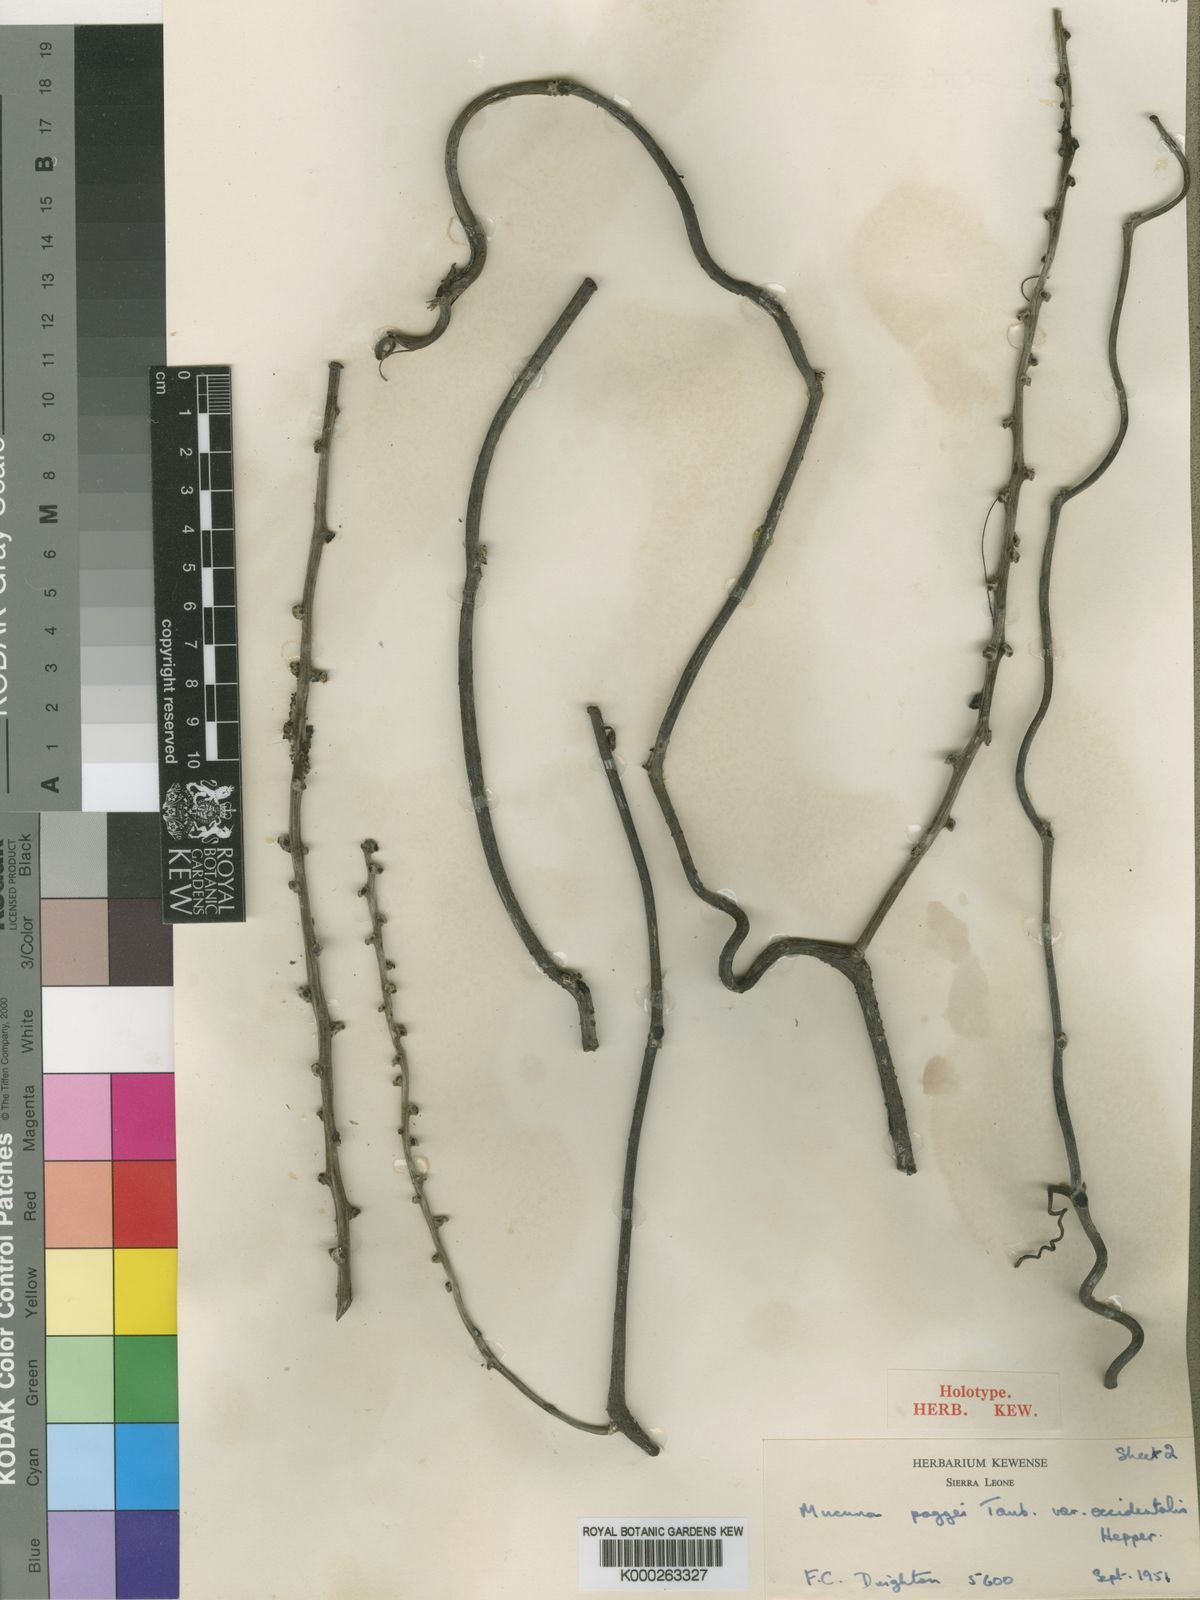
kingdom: Plantae
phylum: Tracheophyta
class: Magnoliopsida
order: Fabales
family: Fabaceae
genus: Mucuna
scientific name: Mucuna occidentalis
